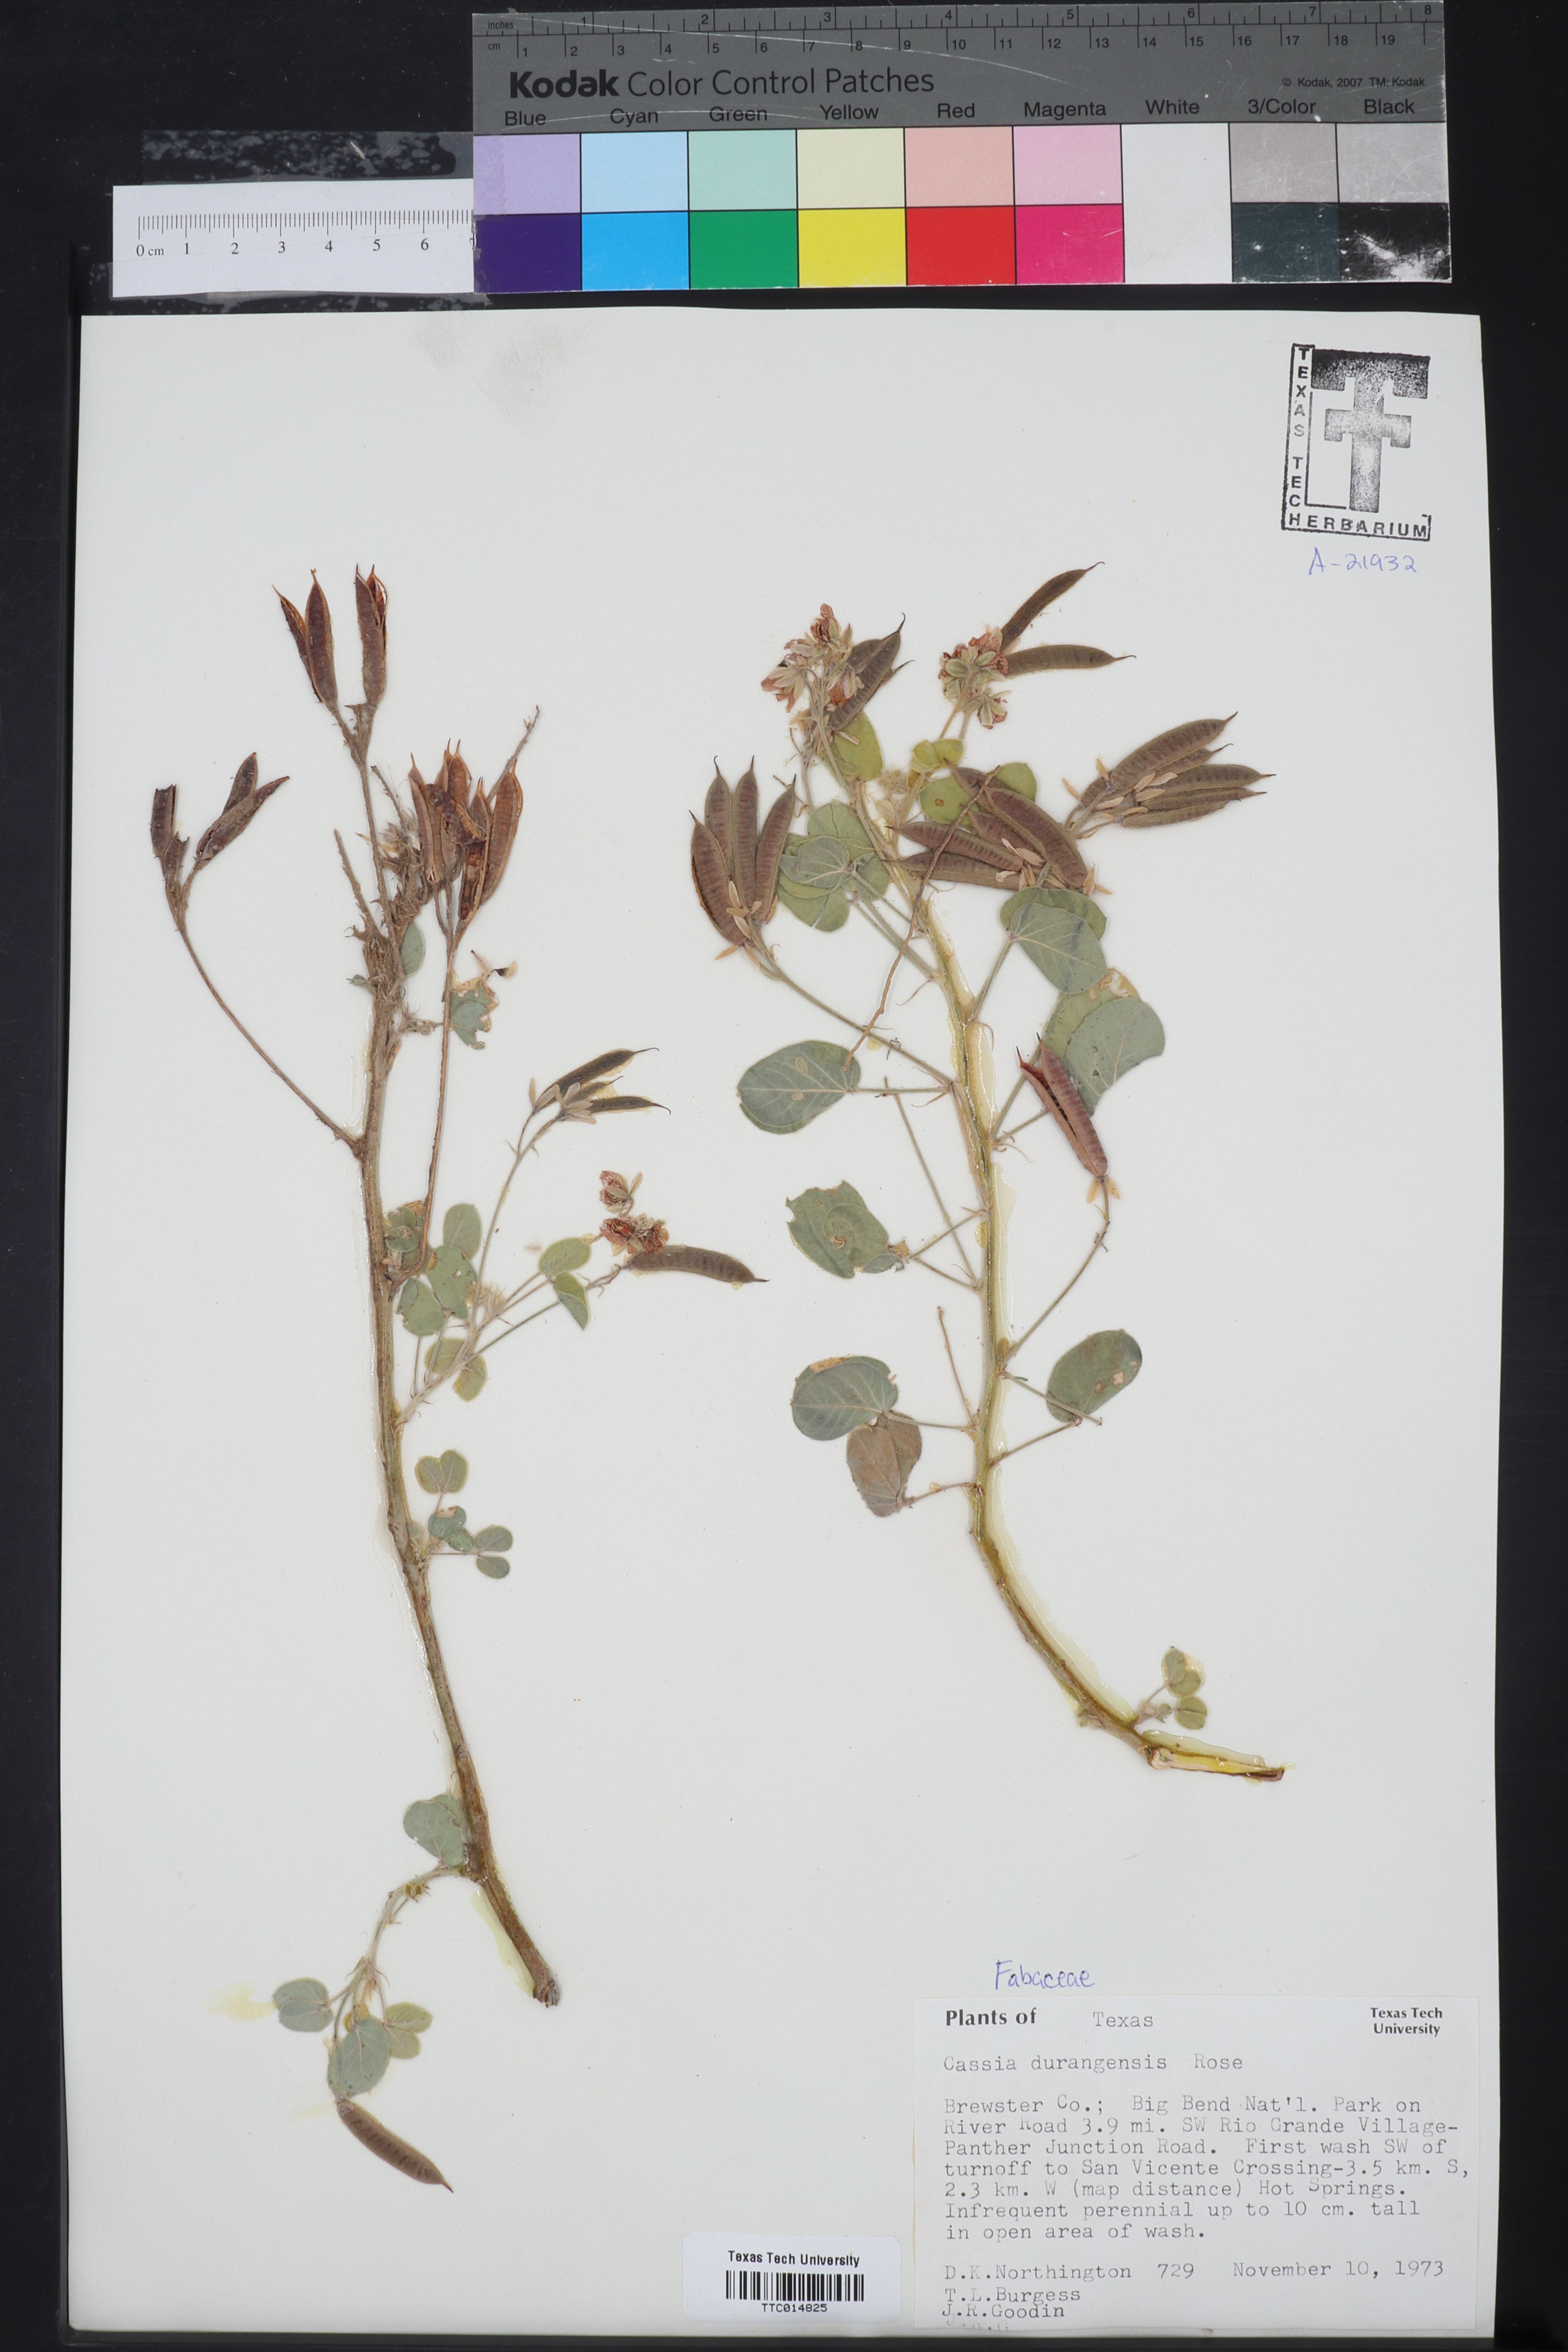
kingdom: Plantae
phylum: Tracheophyta
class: Magnoliopsida
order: Fabales
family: Fabaceae
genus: Senna
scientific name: Senna durangensis
